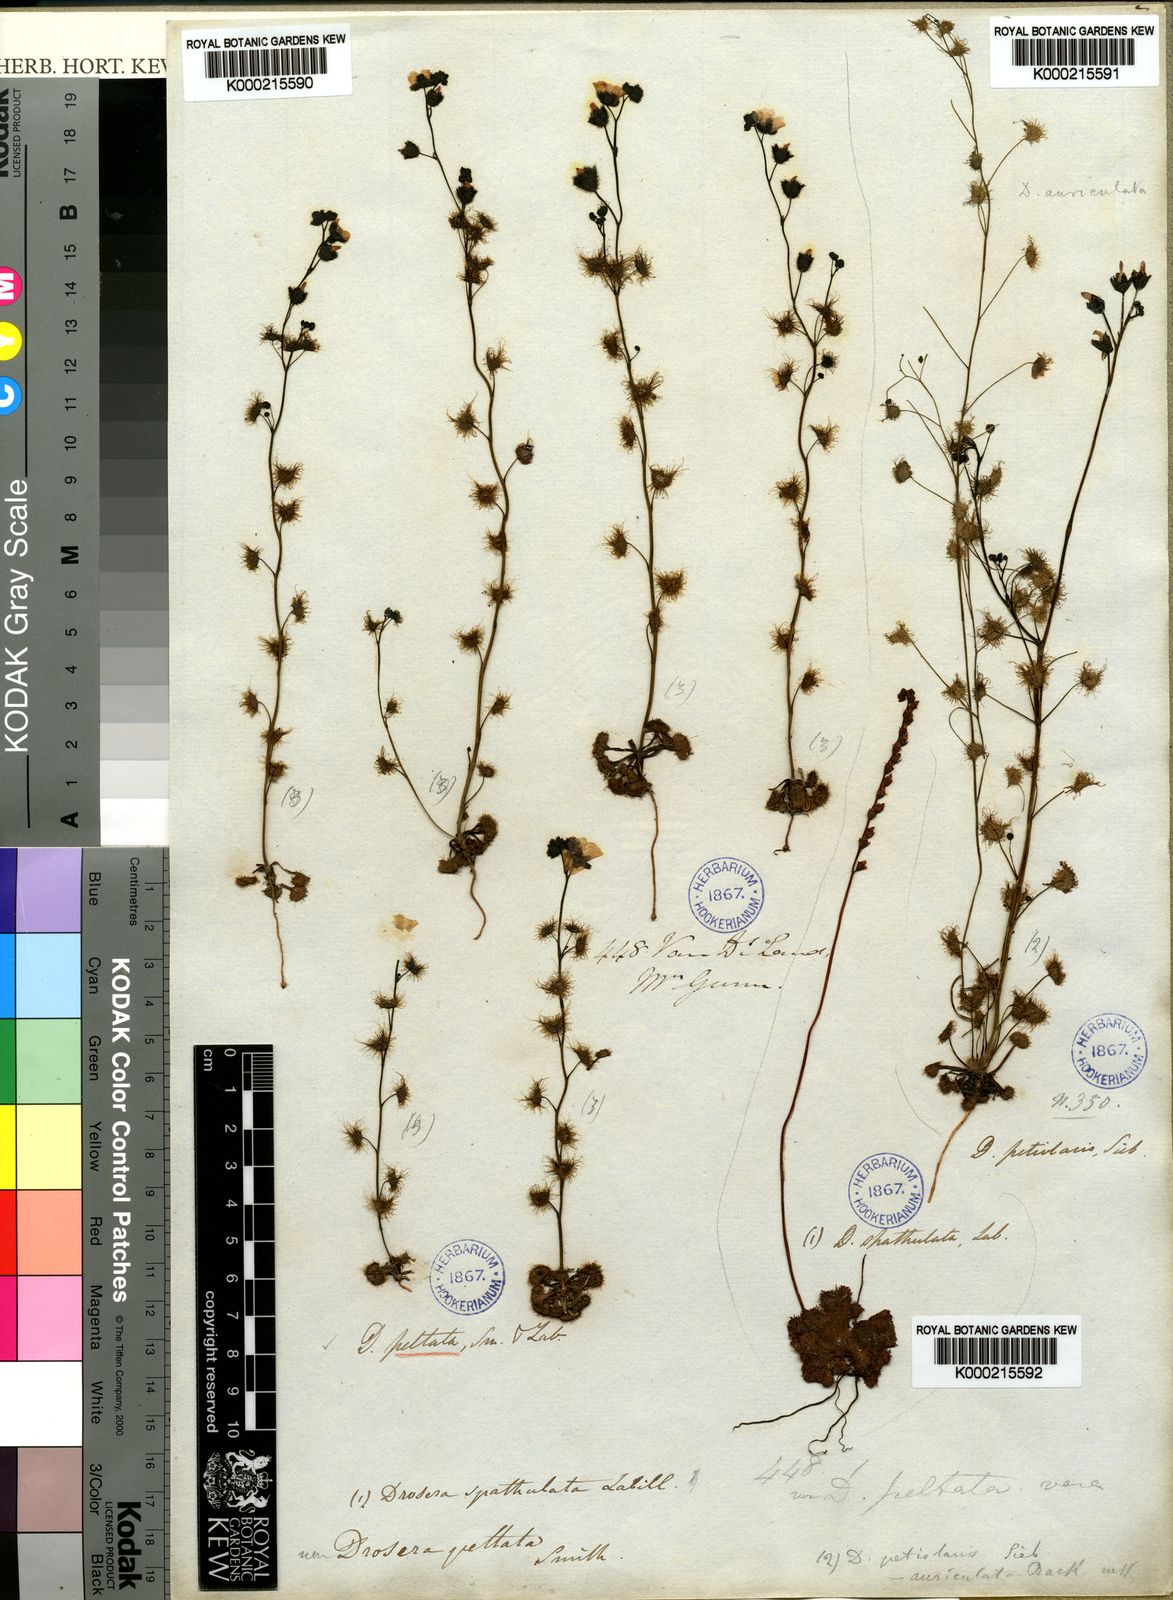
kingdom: Plantae
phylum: Tracheophyta
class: Magnoliopsida
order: Caryophyllales
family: Droseraceae
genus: Drosera
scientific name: Drosera peltata
